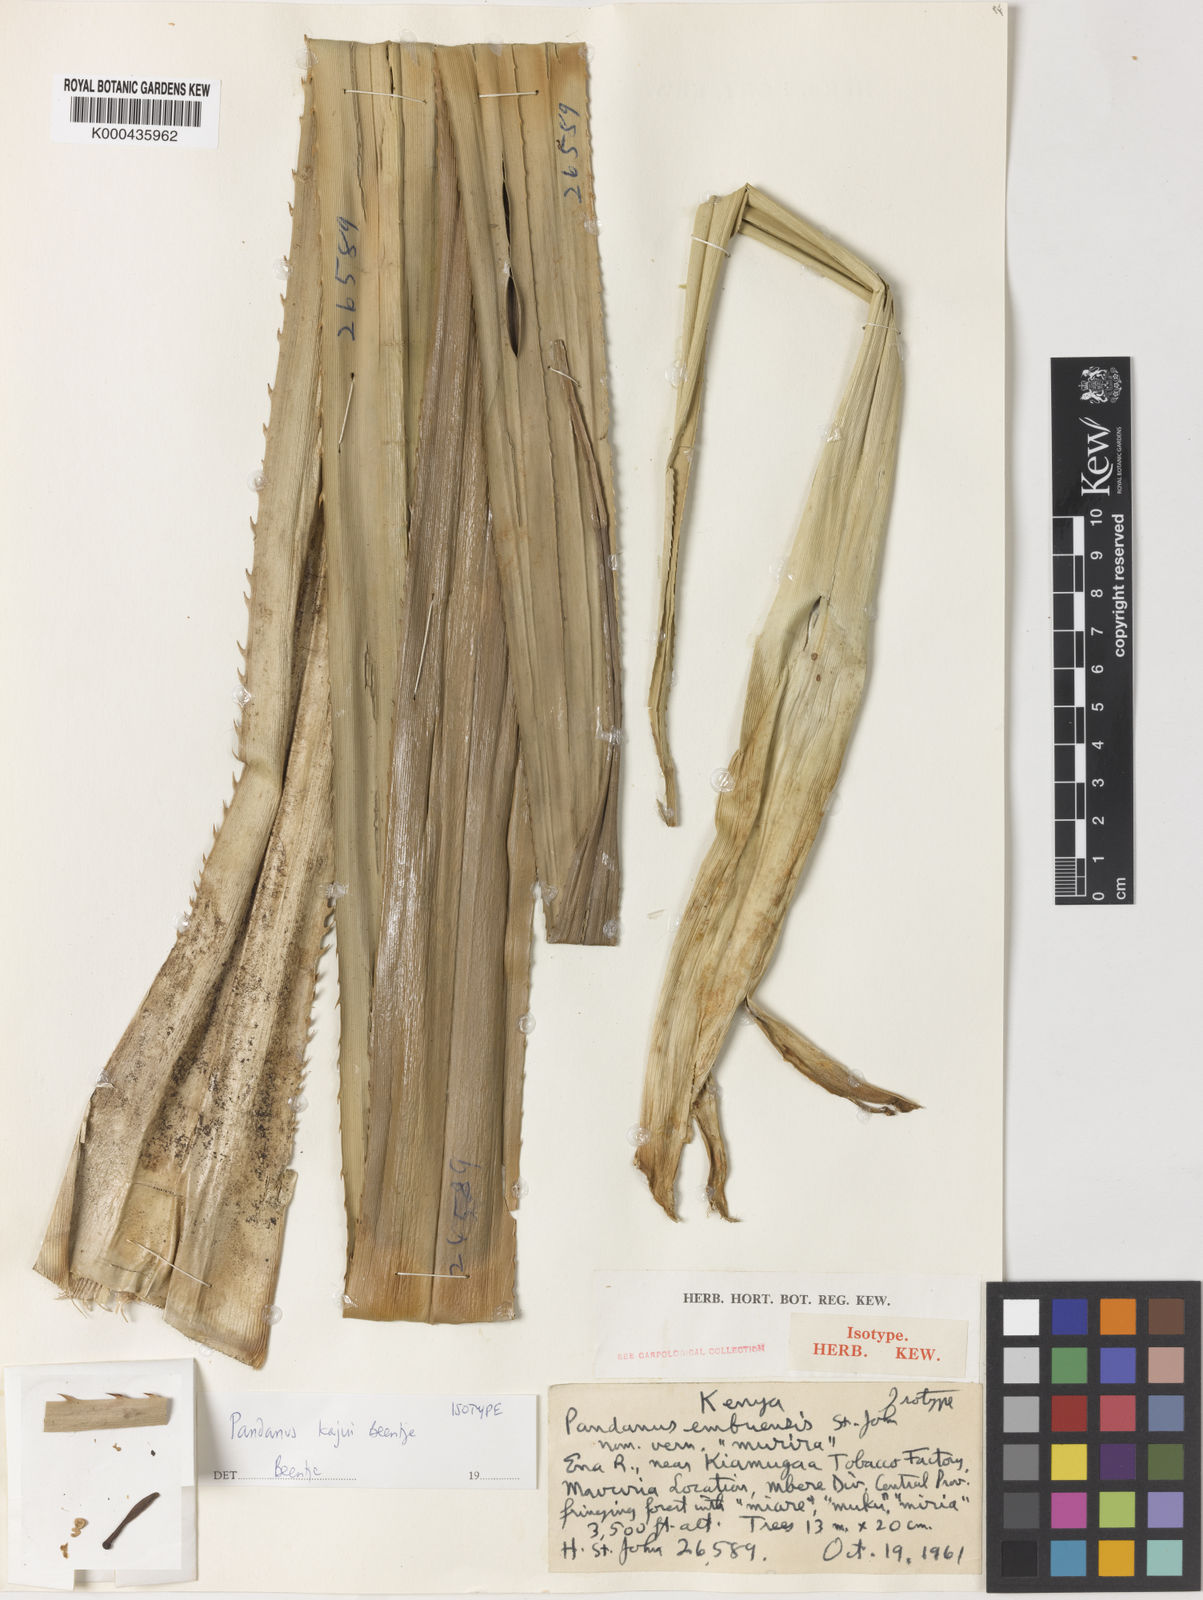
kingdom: Plantae
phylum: Tracheophyta
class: Liliopsida
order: Pandanales
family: Pandanaceae
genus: Pandanus
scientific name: Pandanus
